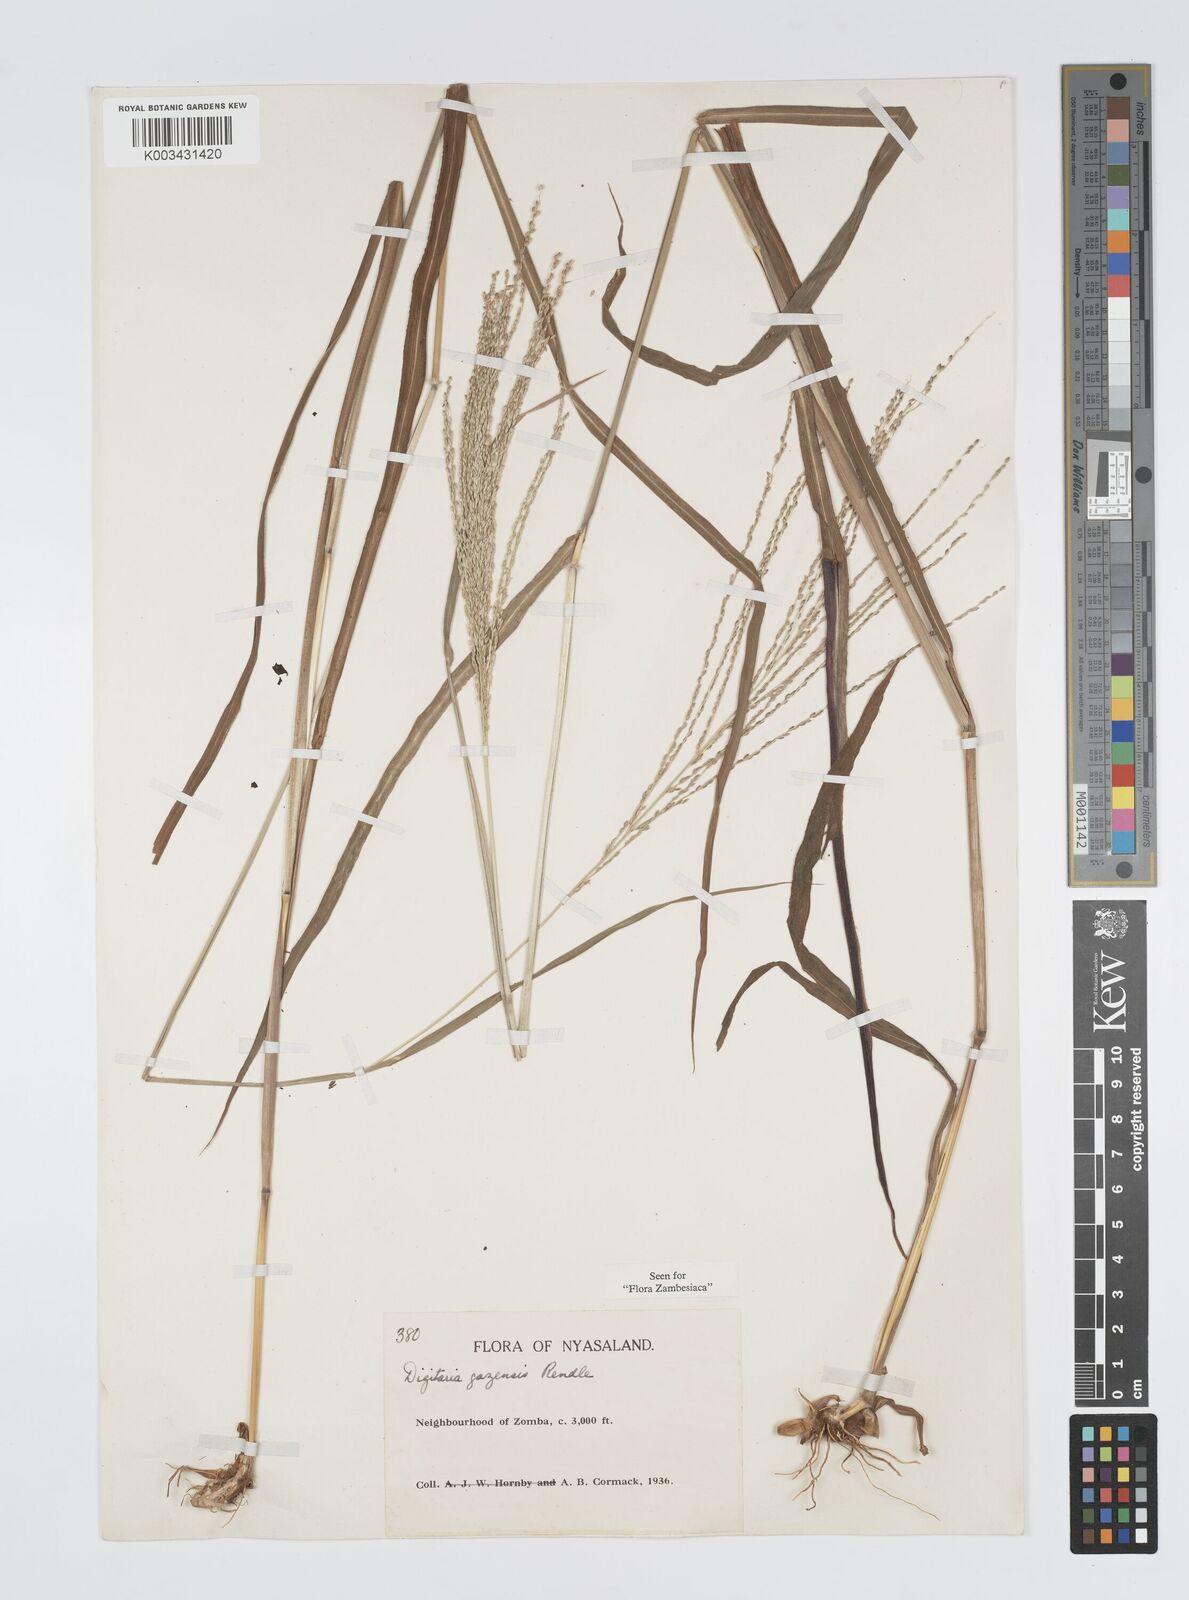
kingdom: Plantae
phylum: Tracheophyta
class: Liliopsida
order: Poales
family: Poaceae
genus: Digitaria
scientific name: Digitaria gazensis
